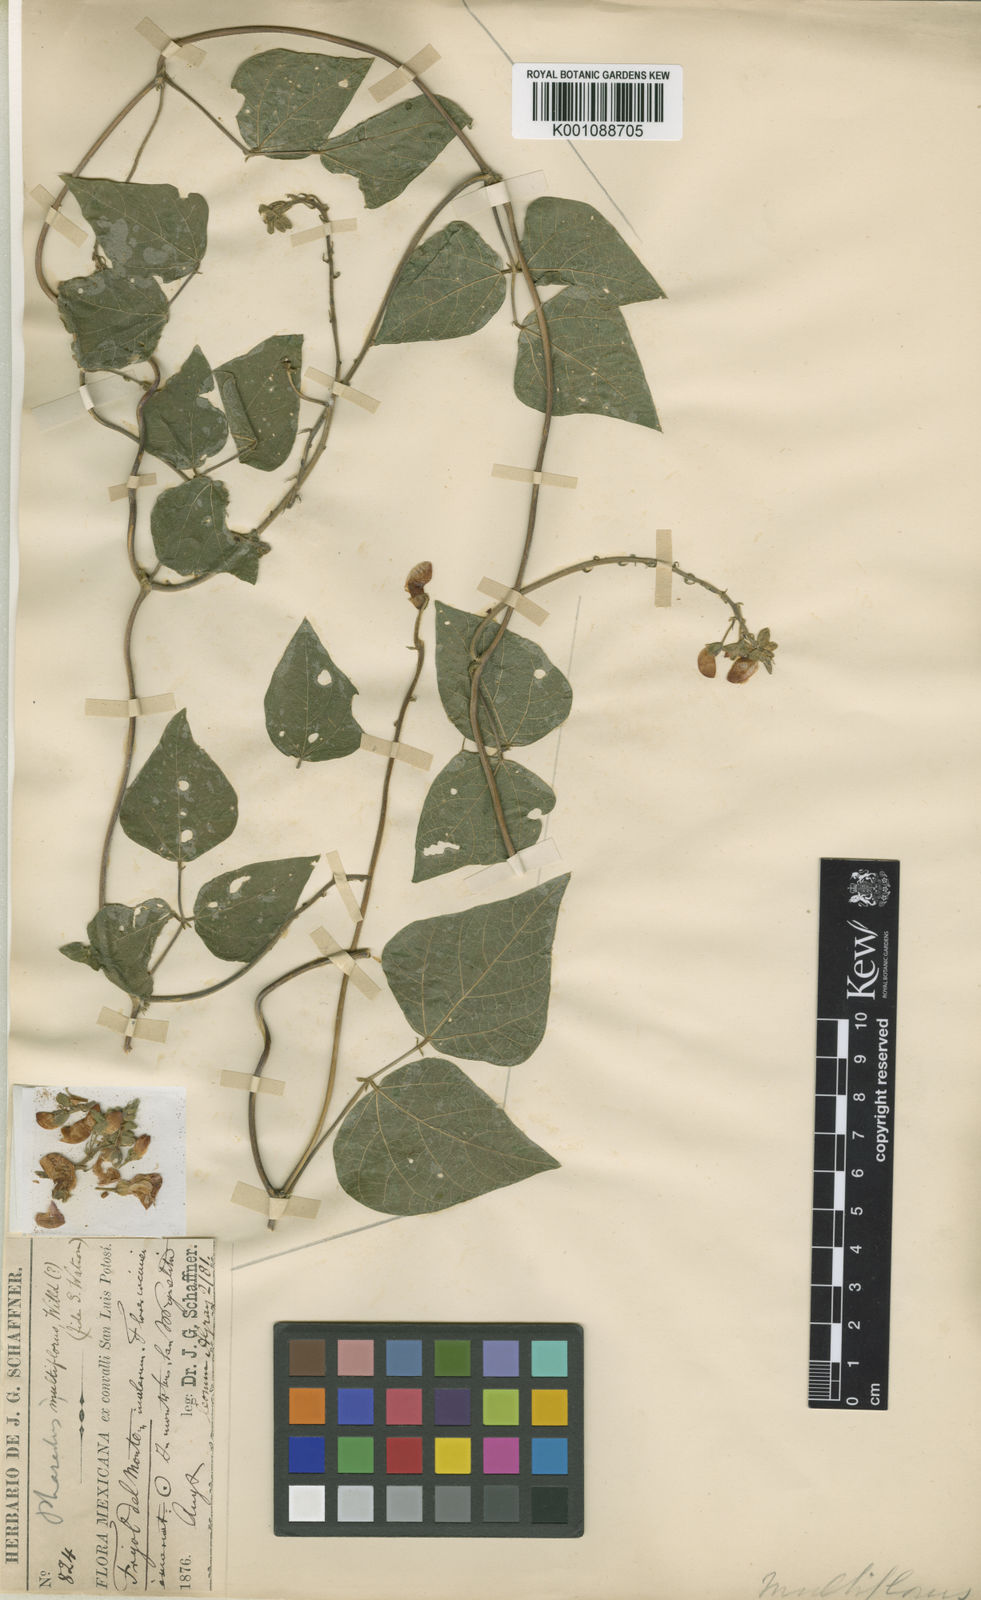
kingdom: Plantae
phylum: Tracheophyta
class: Magnoliopsida
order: Fabales
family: Fabaceae
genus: Phaseolus
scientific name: Phaseolus coccineus
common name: Runner bean
